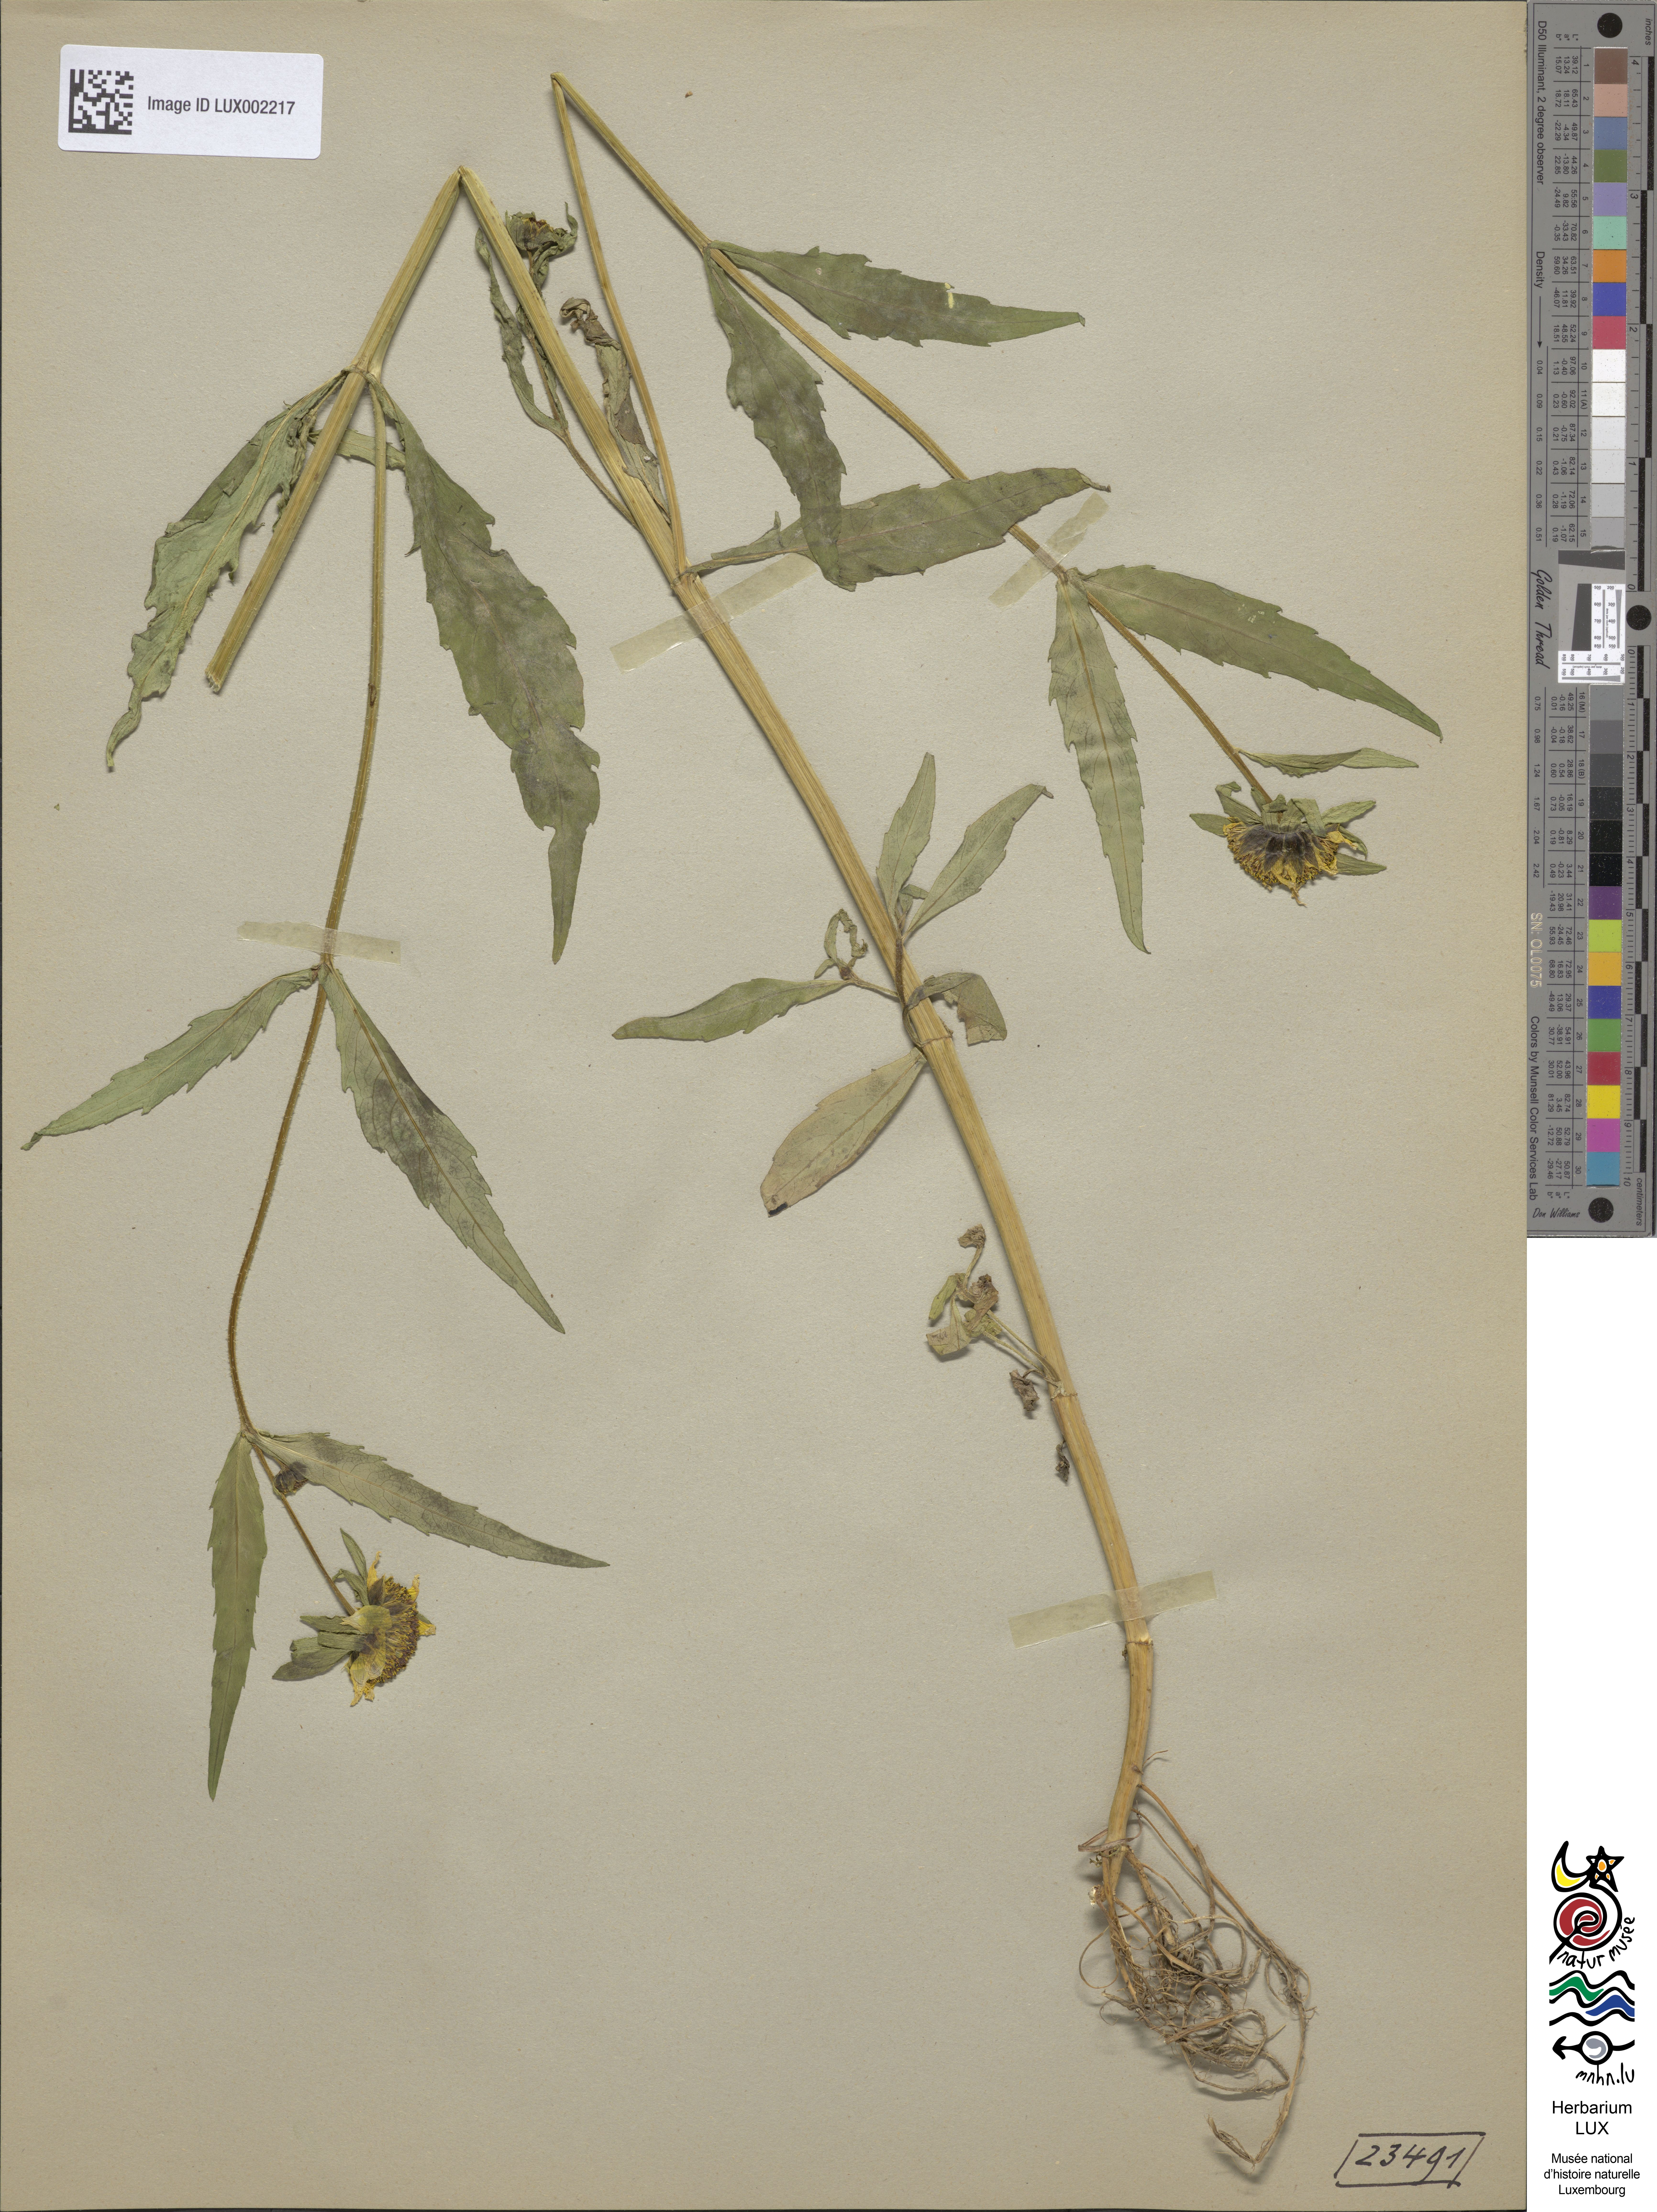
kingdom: Plantae
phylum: Tracheophyta
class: Magnoliopsida
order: Asterales
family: Asteraceae
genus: Bidens
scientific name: Bidens cernua
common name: Nodding bur-marigold
